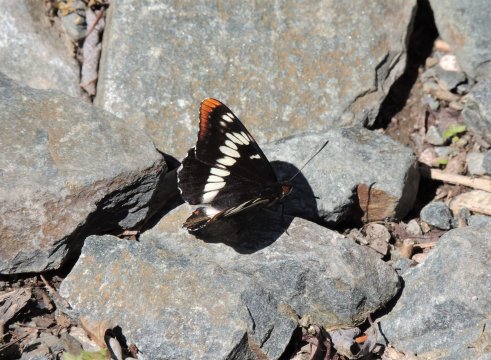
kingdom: Animalia
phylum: Arthropoda
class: Insecta
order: Lepidoptera
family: Nymphalidae
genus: Limenitis
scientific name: Limenitis lorquini
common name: Lorquin's Admiral
